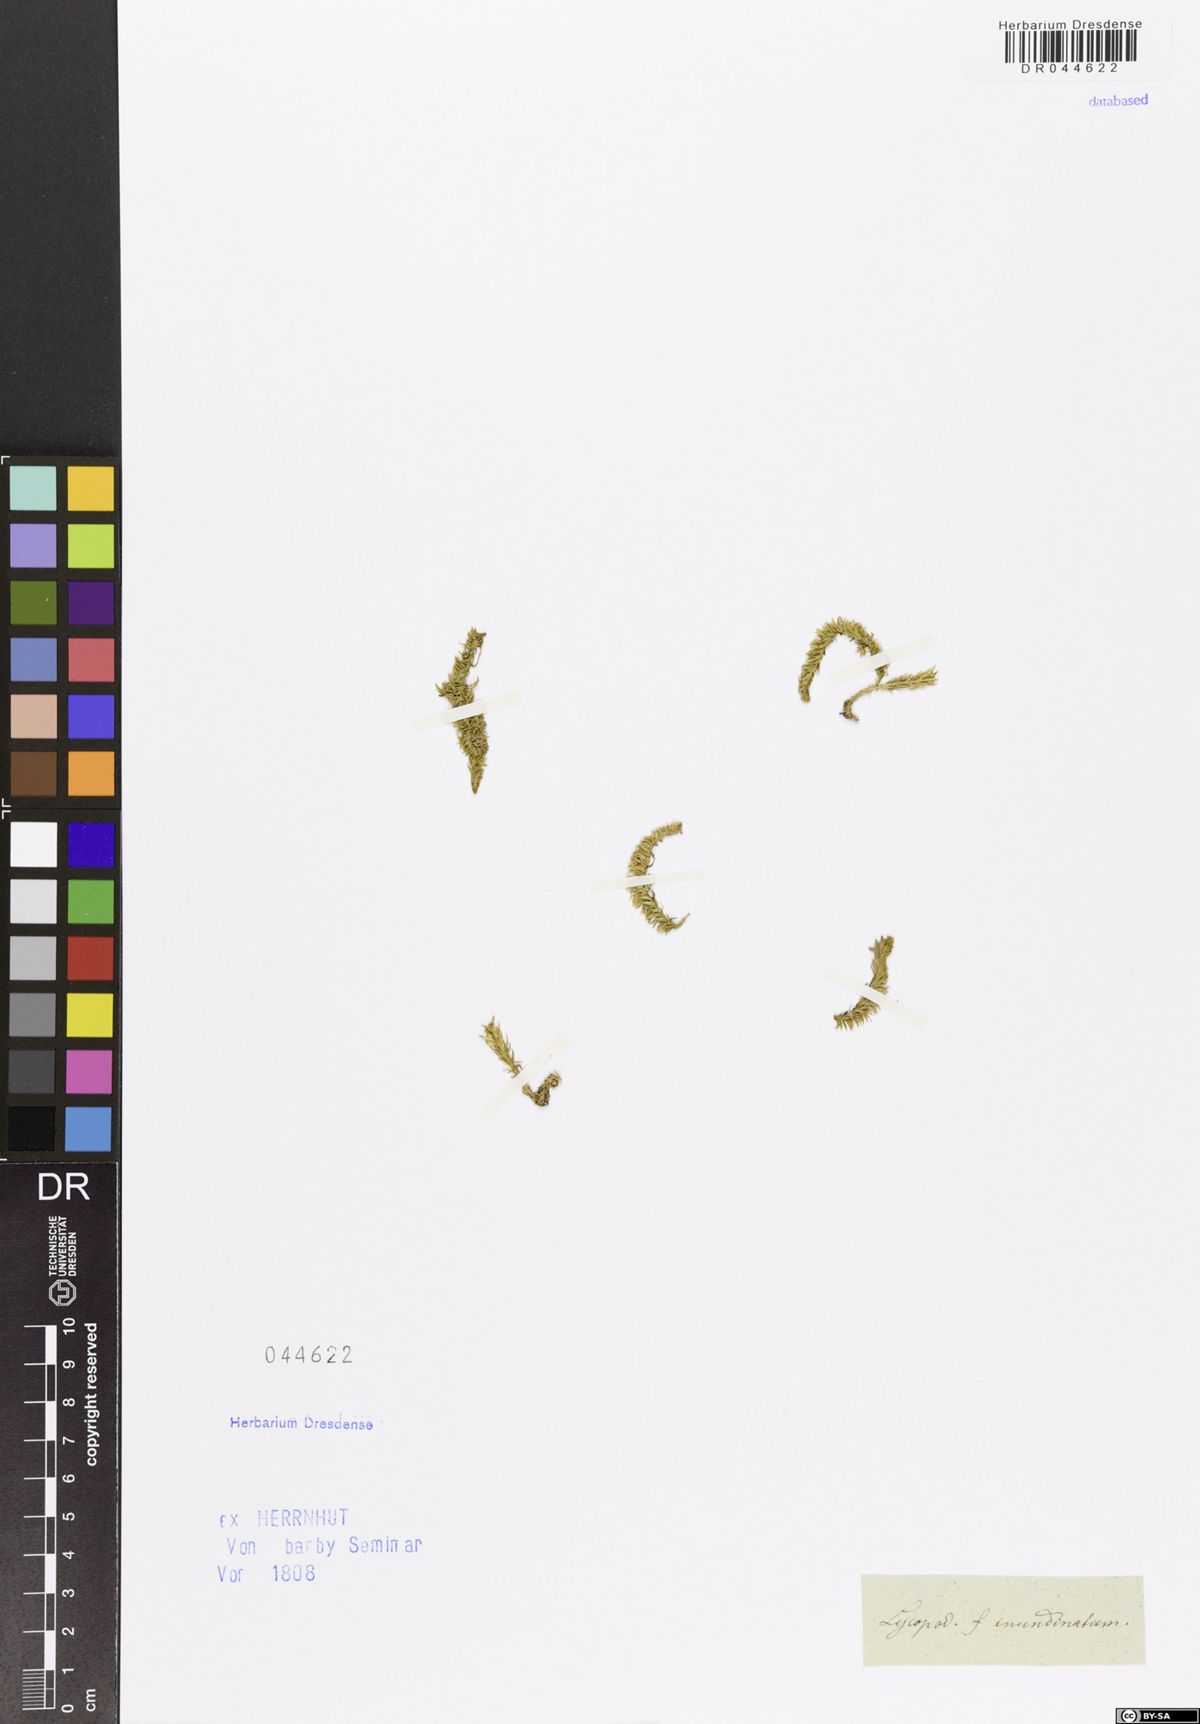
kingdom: Plantae
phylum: Tracheophyta
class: Lycopodiopsida
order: Lycopodiales
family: Lycopodiaceae
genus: Lycopodiella
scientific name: Lycopodiella inundata
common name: Marsh clubmoss
